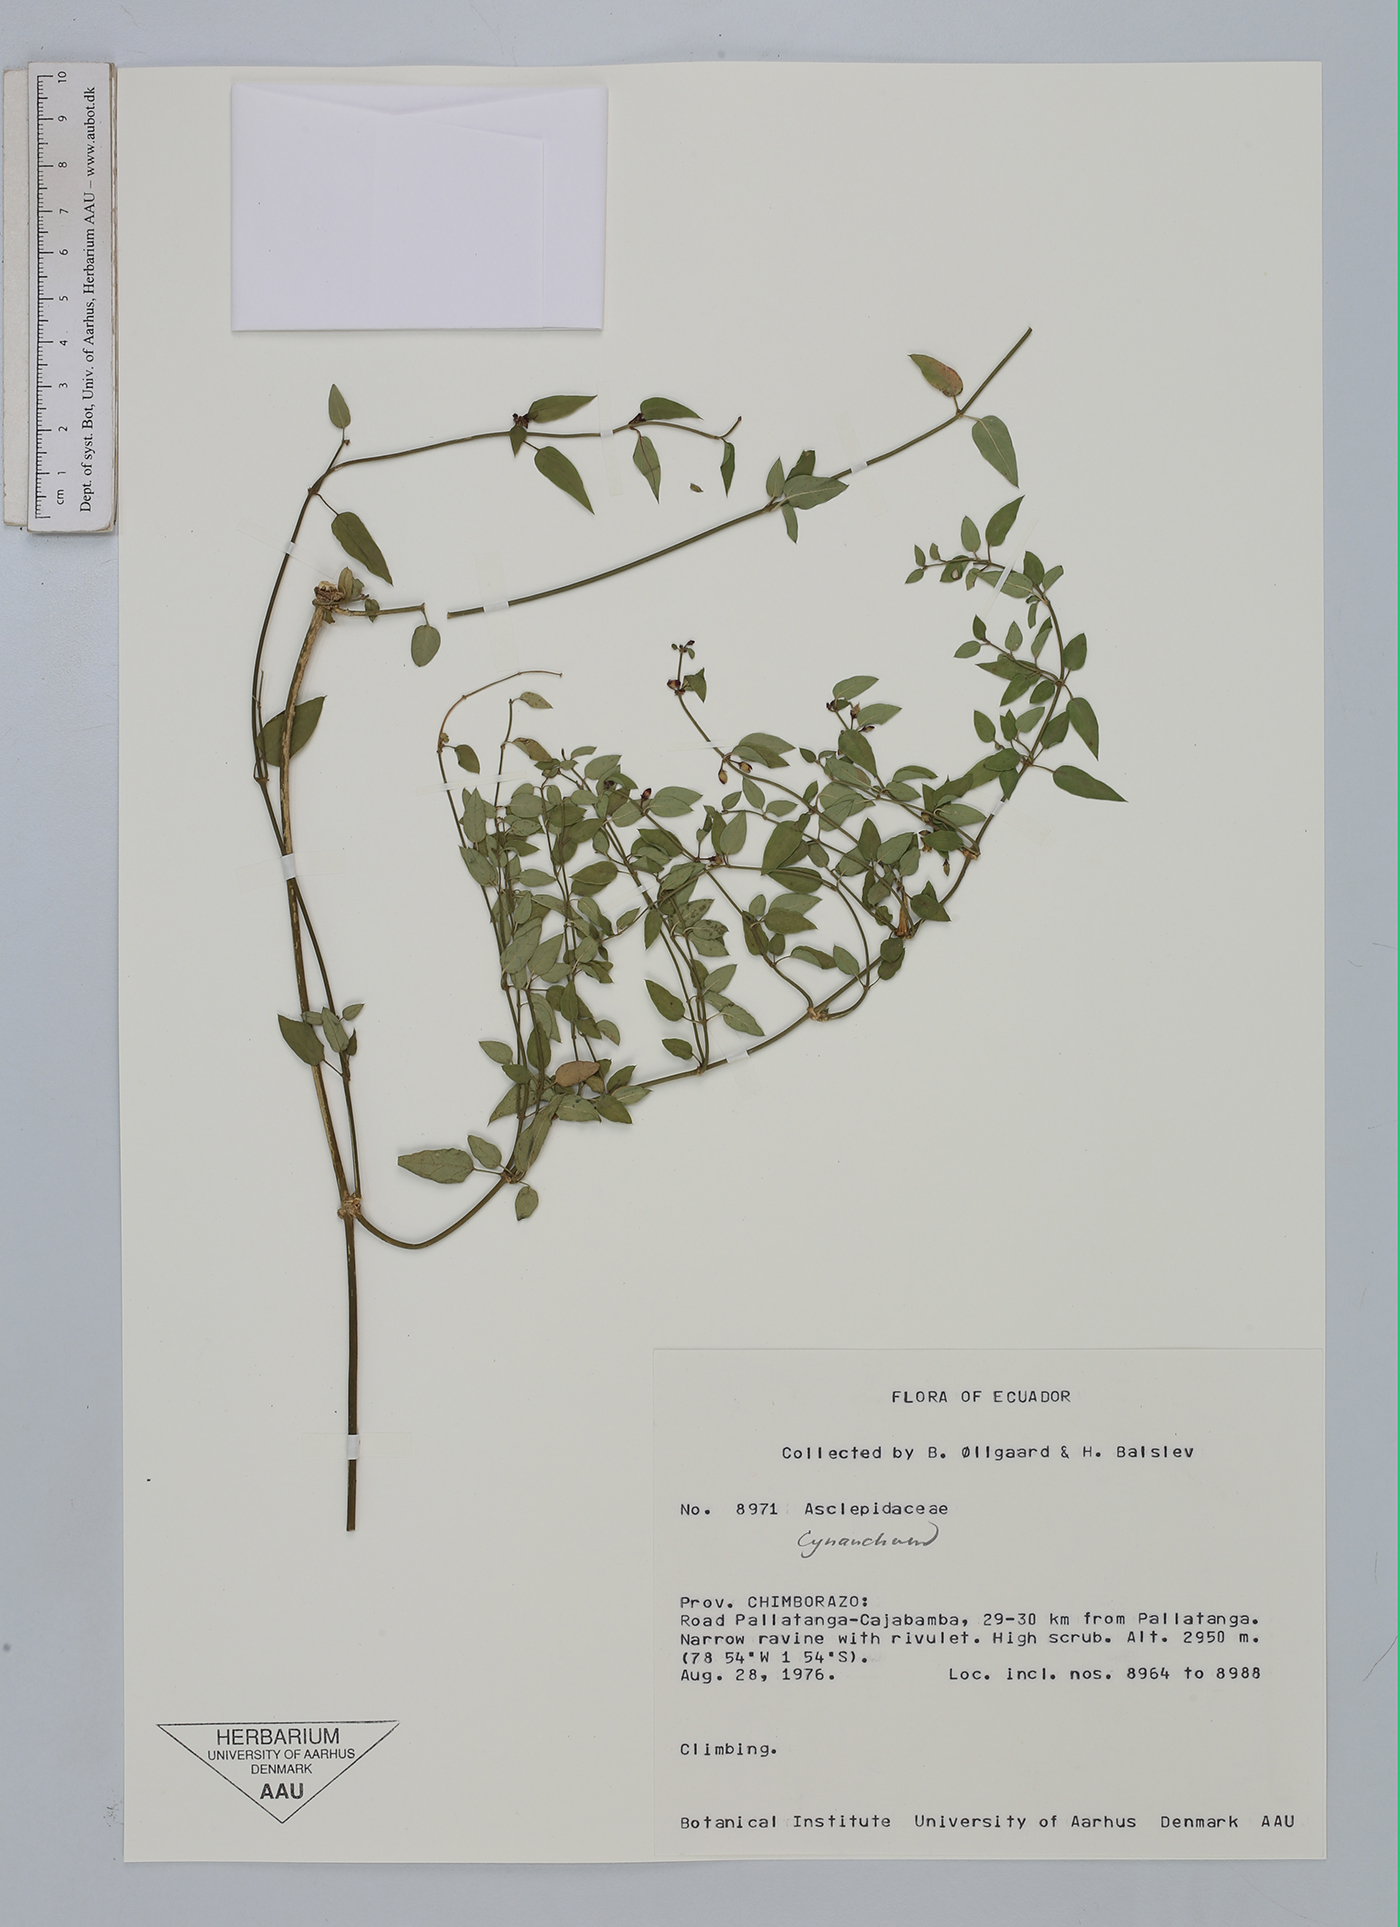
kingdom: Plantae
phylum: Tracheophyta
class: Magnoliopsida
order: Gentianales
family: Apocynaceae
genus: Cynanchum
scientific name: Cynanchum
